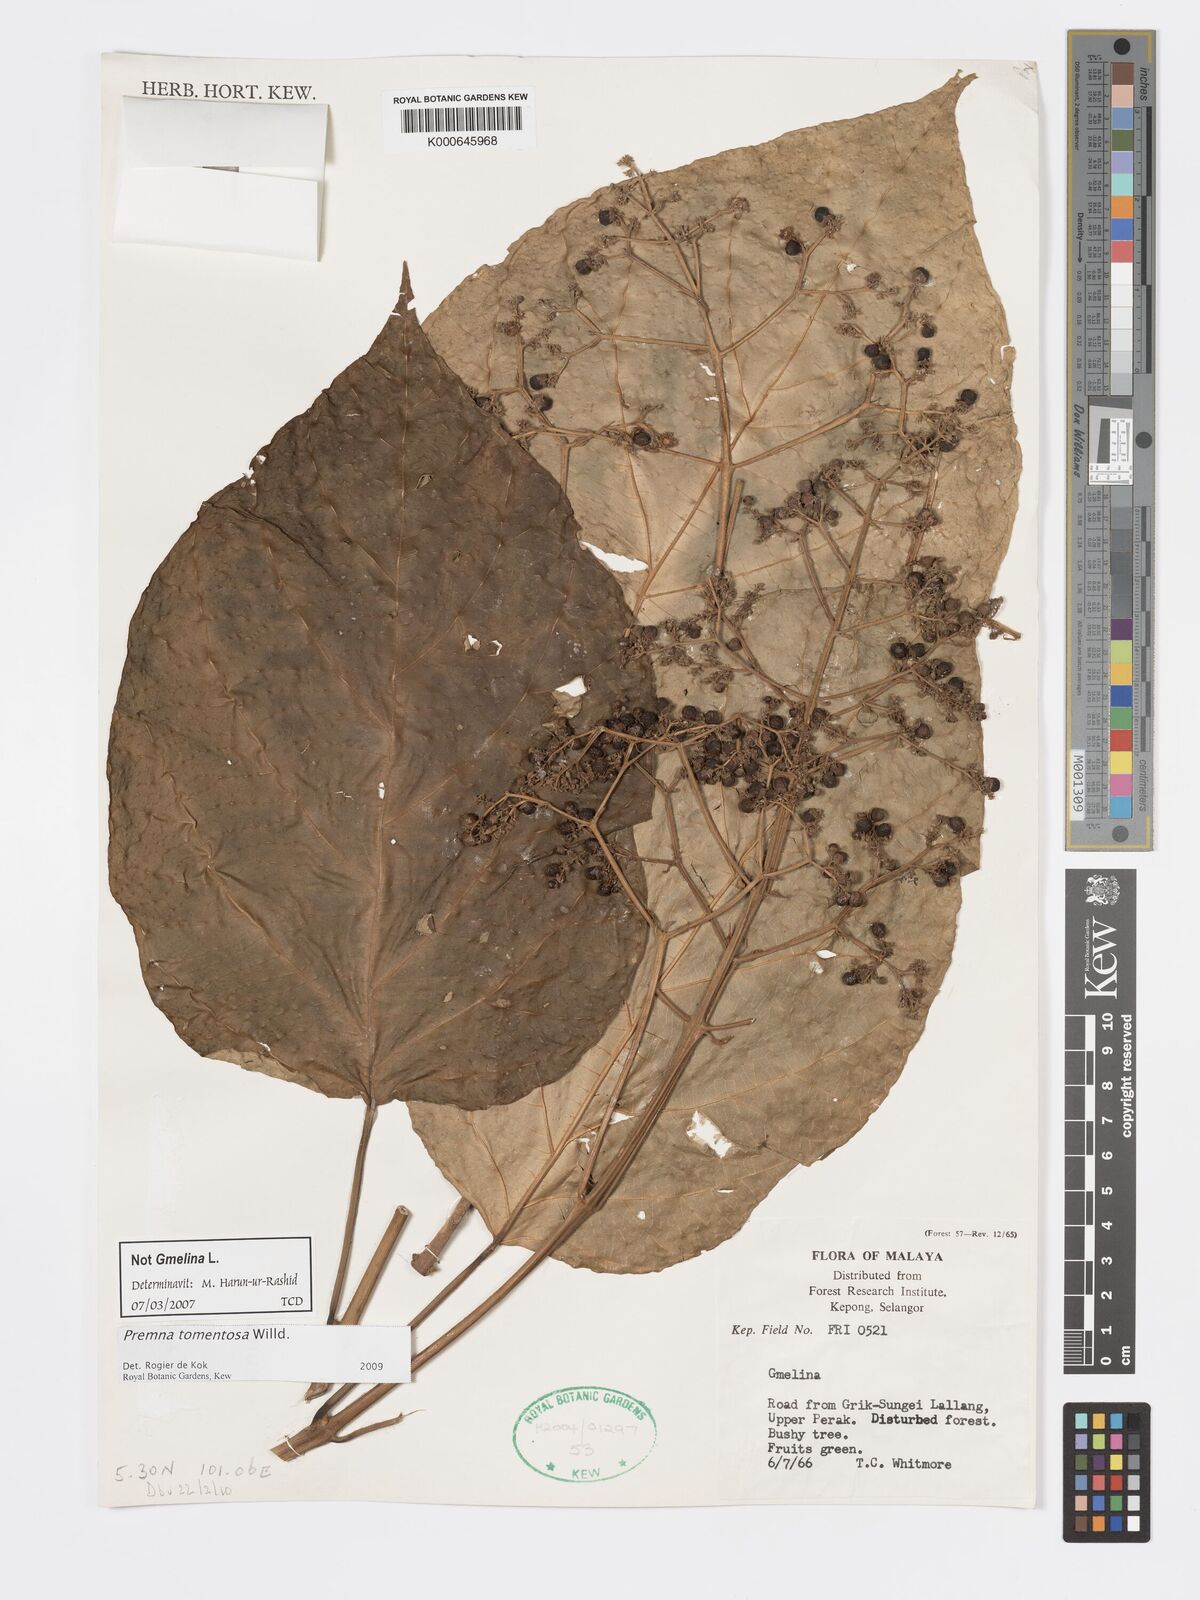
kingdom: Plantae
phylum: Tracheophyta
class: Magnoliopsida
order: Lamiales
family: Lamiaceae
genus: Premna
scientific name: Premna tomentosa
